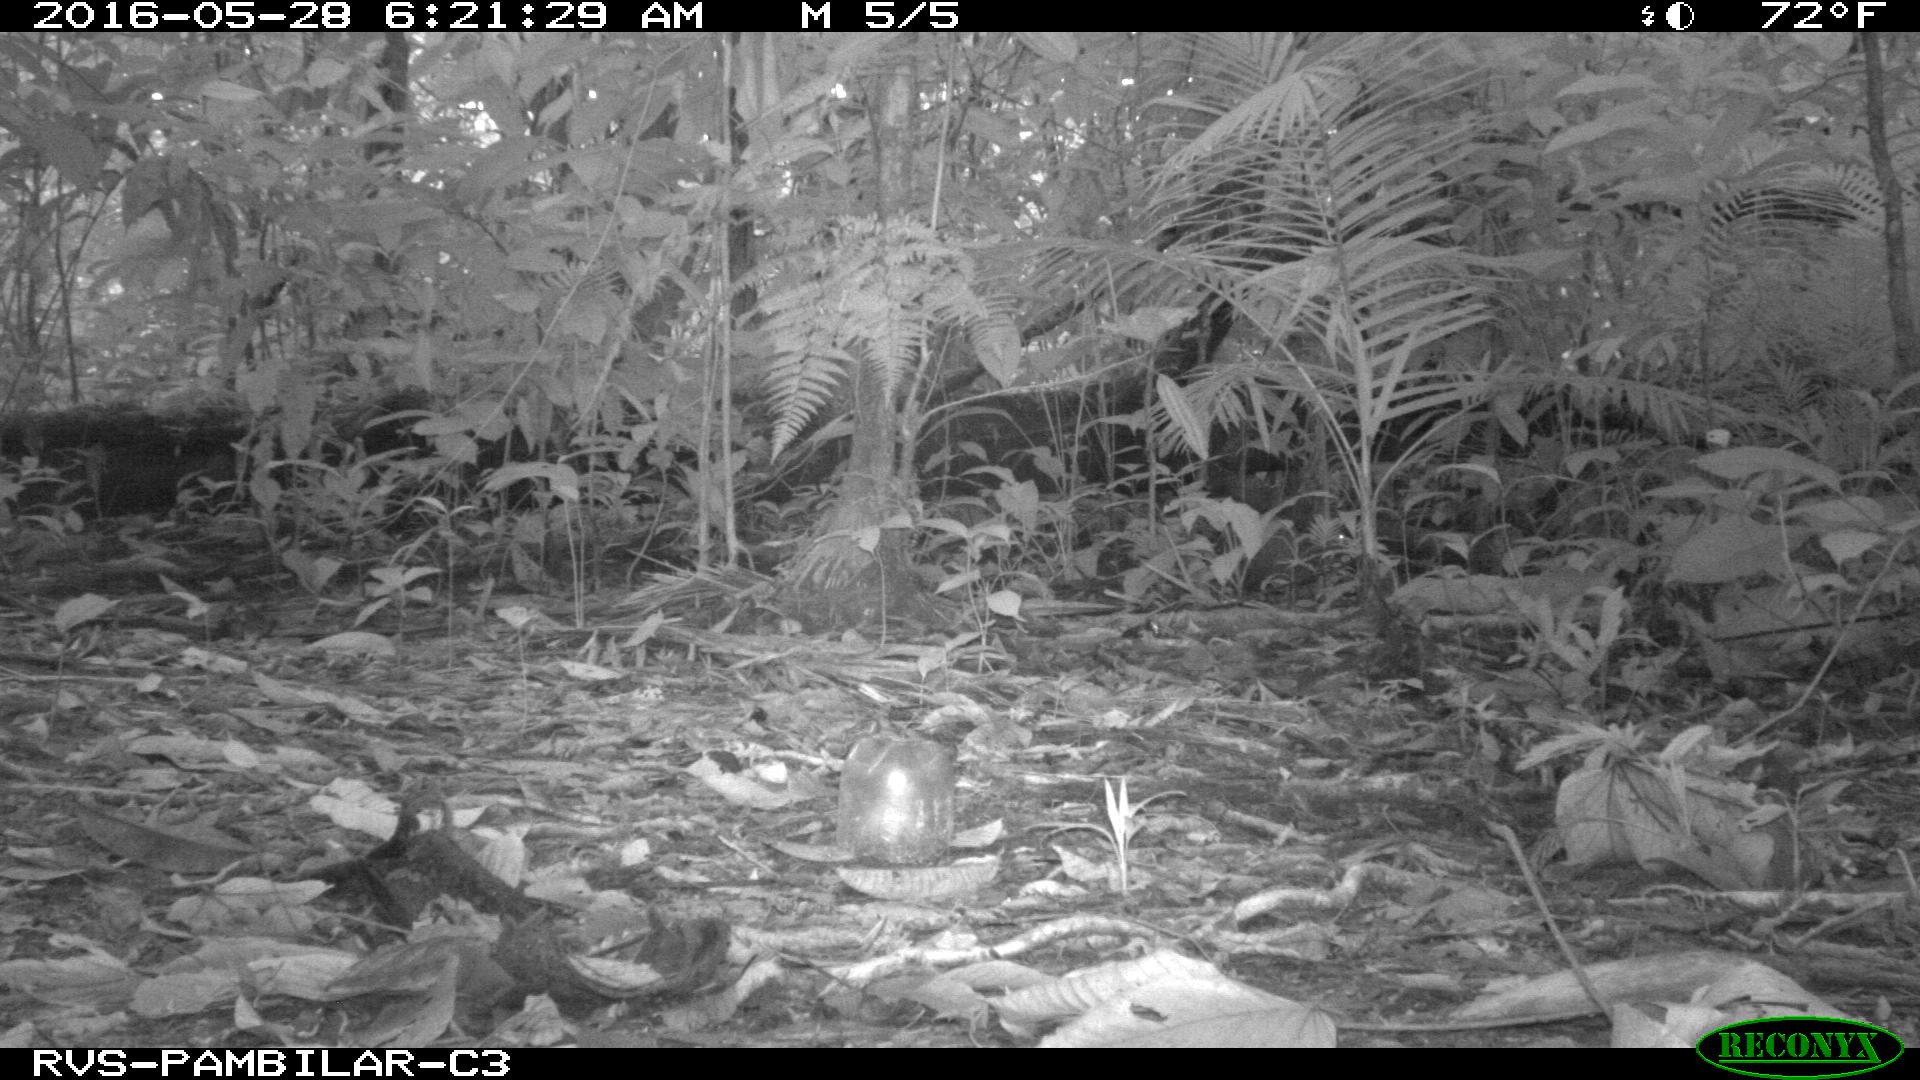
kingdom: Animalia
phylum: Chordata
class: Mammalia
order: Rodentia
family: Dasyproctidae
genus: Dasyprocta
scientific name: Dasyprocta punctata
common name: Central american agouti
